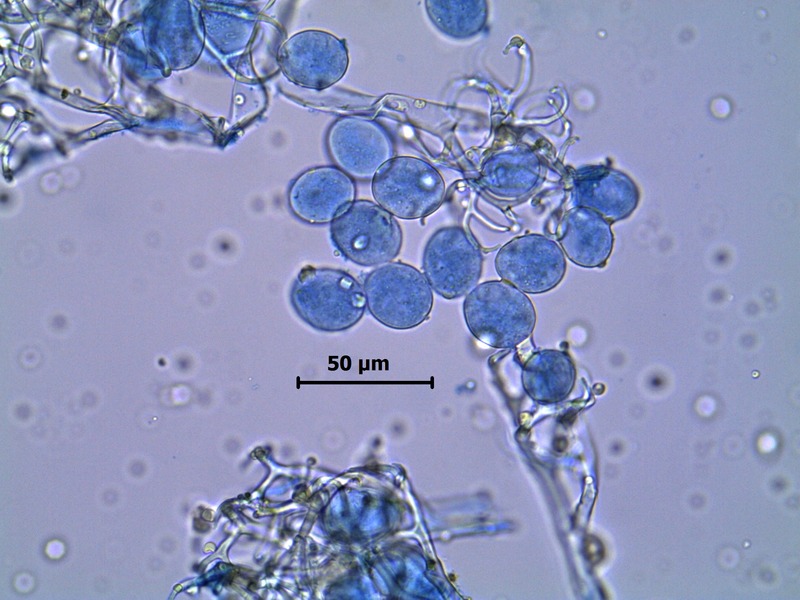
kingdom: Chromista
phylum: Oomycota
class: Peronosporea
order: Peronosporales
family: Peronosporaceae
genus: Hyaloperonospora
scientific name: Hyaloperonospora lunariae
